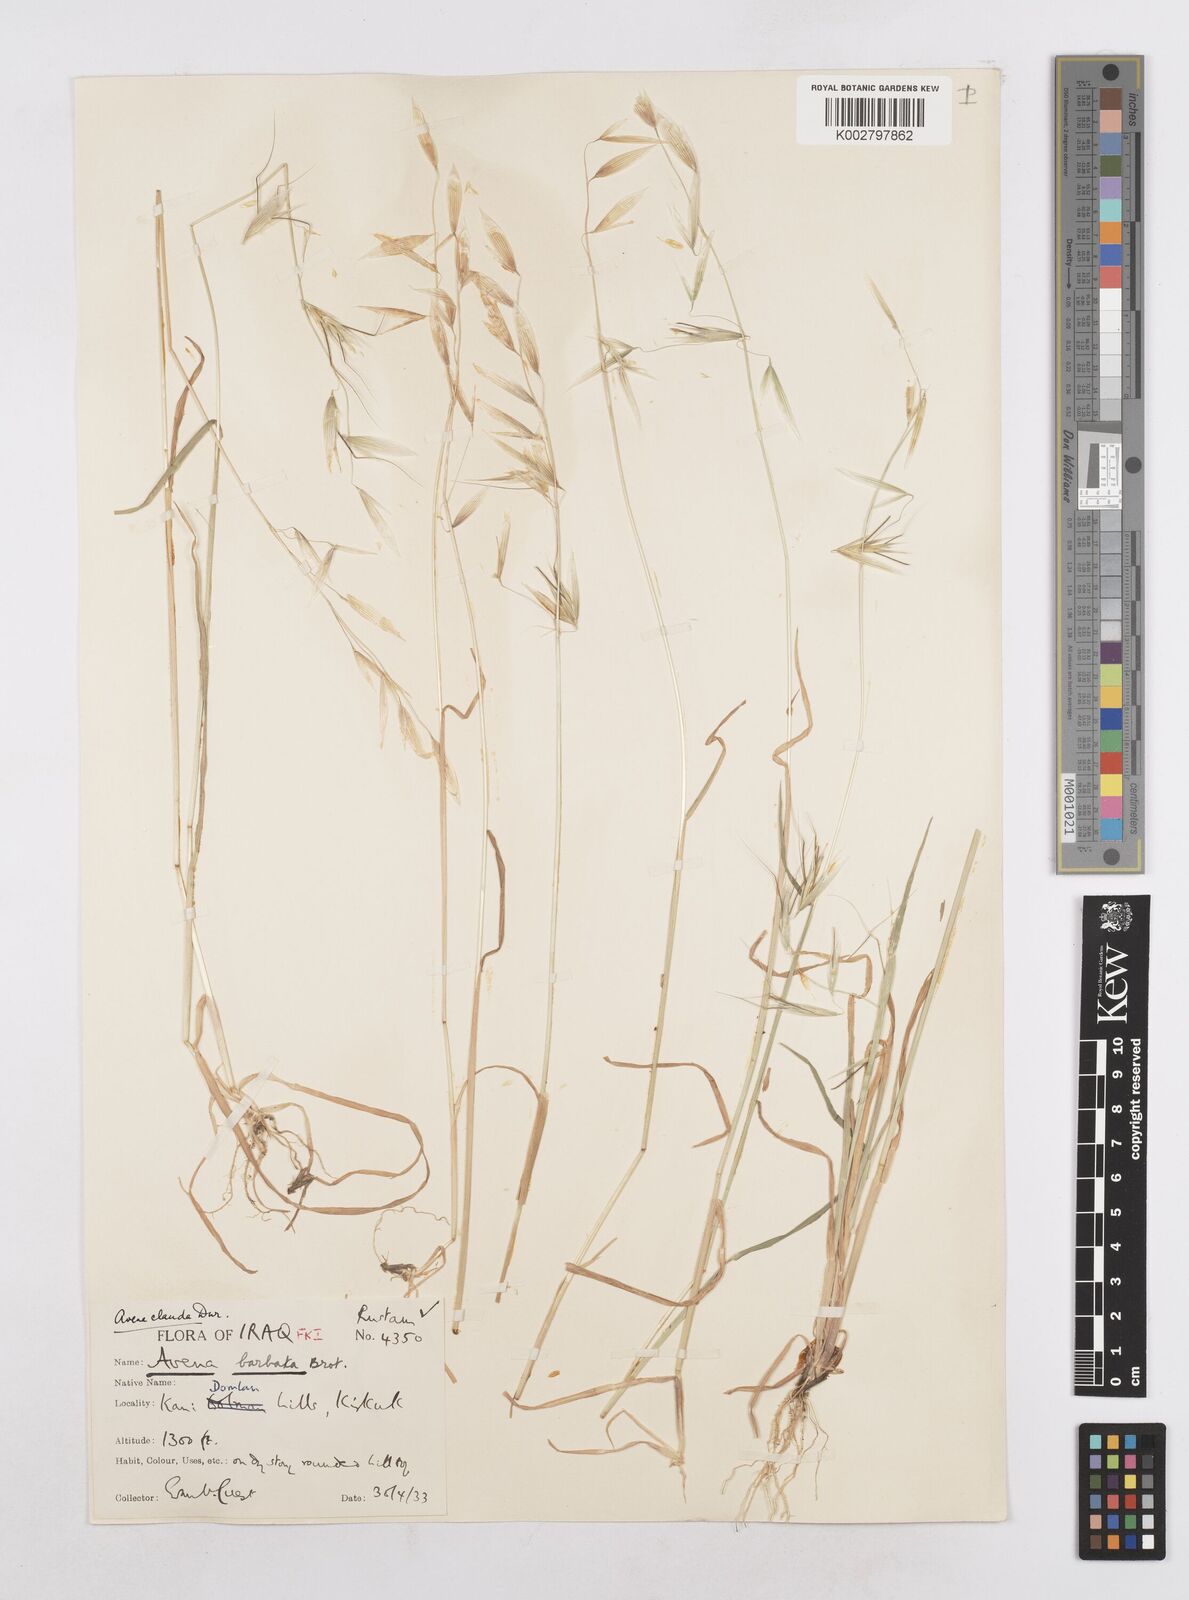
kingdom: Plantae
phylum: Tracheophyta
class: Liliopsida
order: Poales
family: Poaceae
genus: Avena
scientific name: Avena clauda
